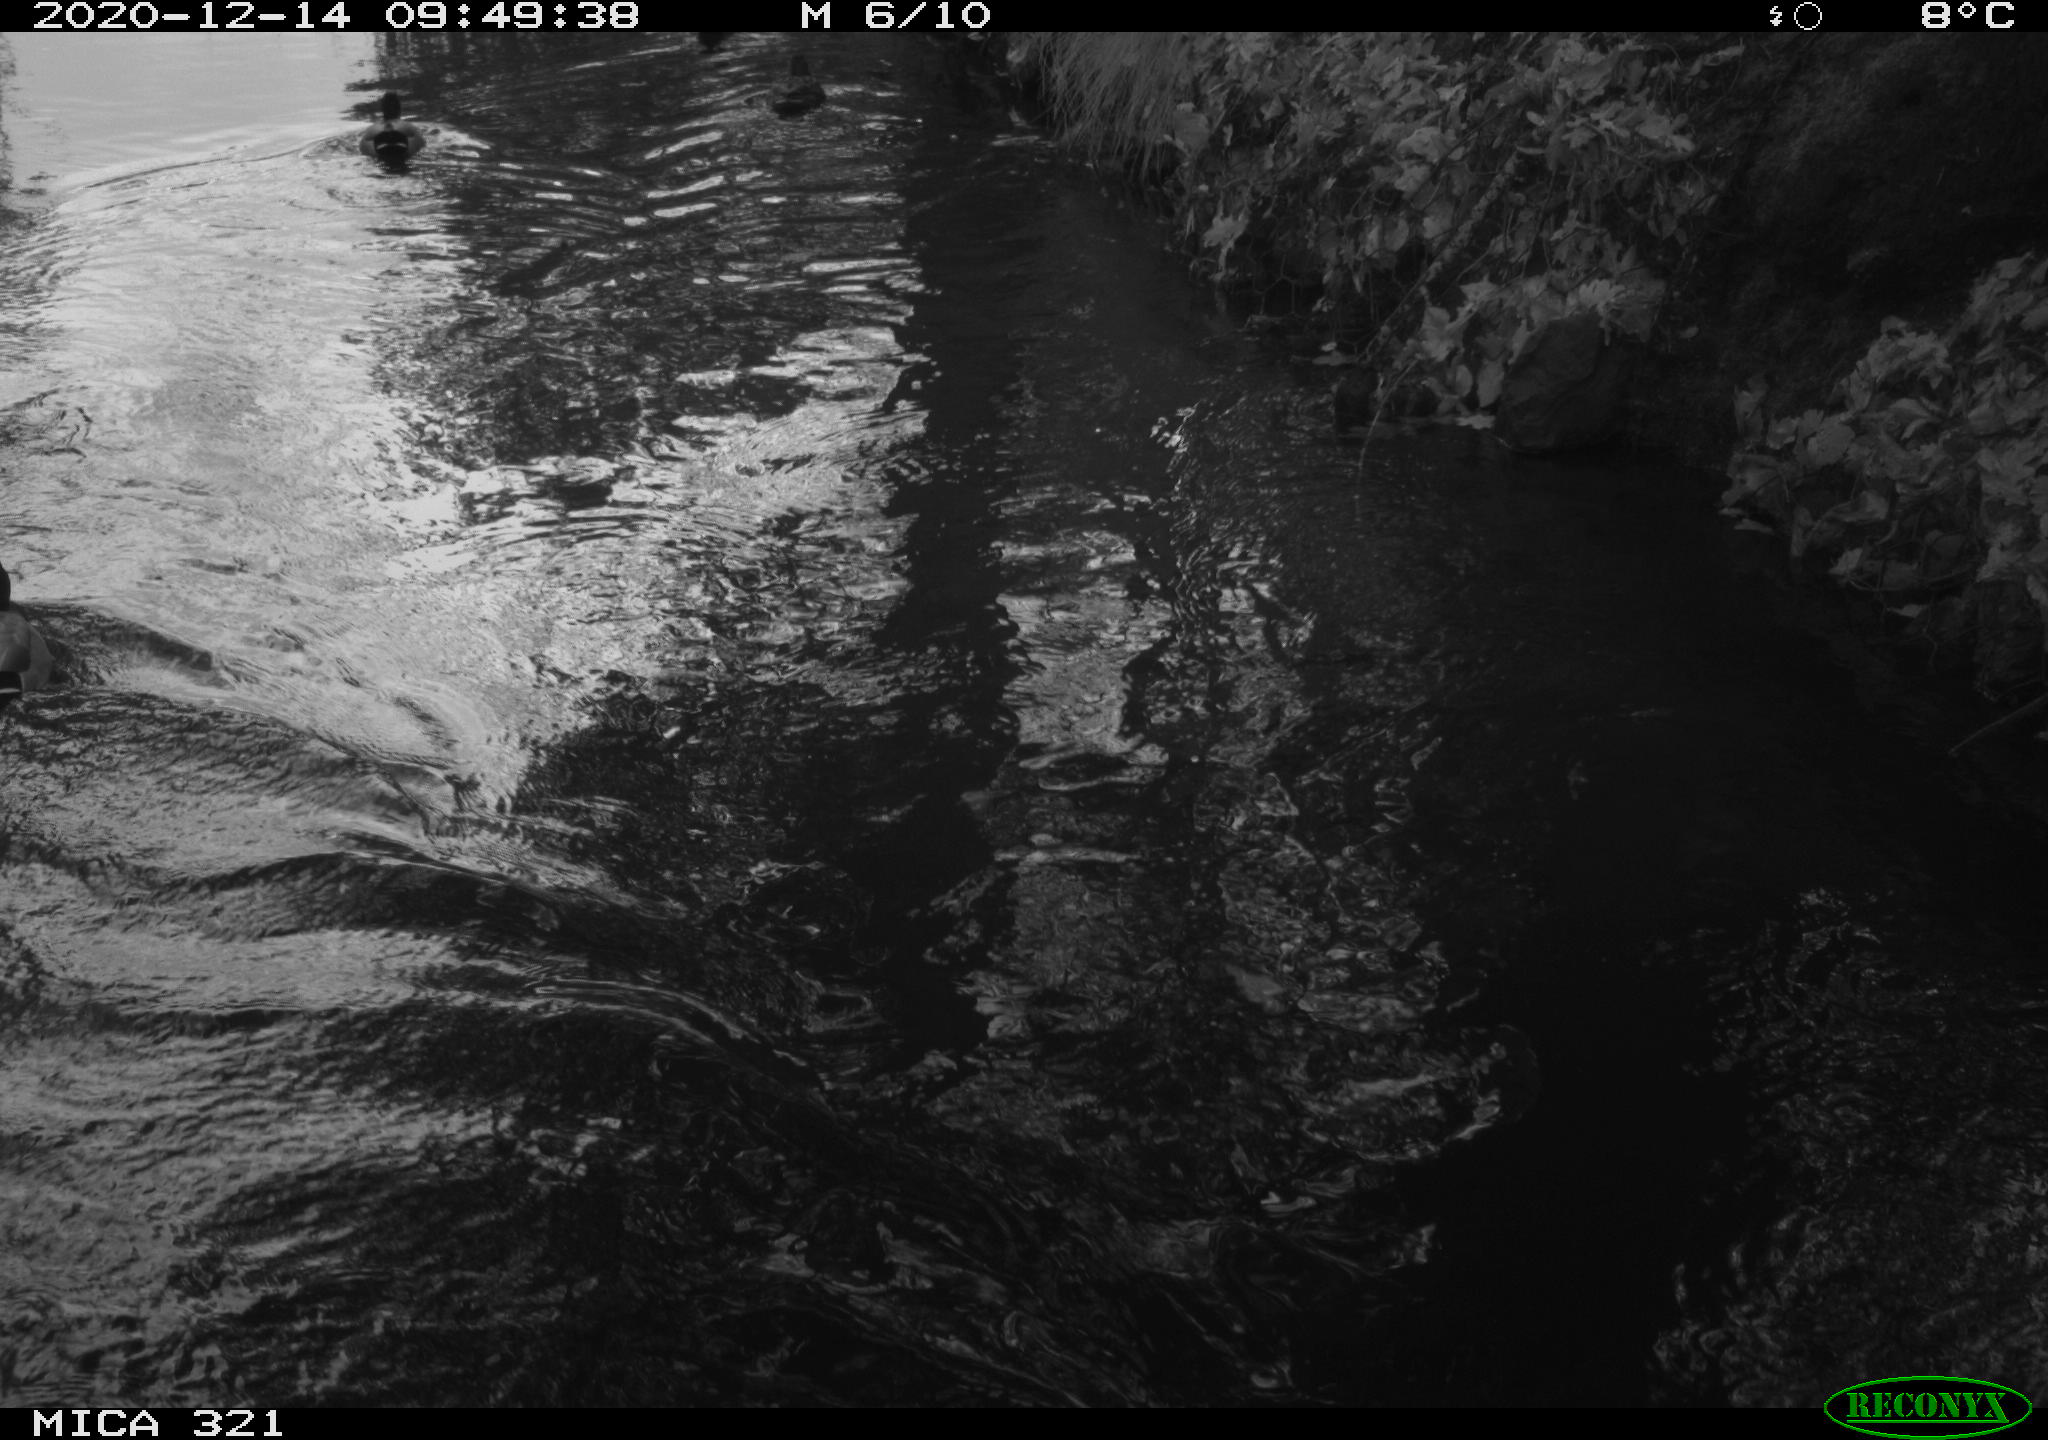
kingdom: Animalia
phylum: Chordata
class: Aves
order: Anseriformes
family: Anatidae
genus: Anas
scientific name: Anas platyrhynchos
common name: Mallard
